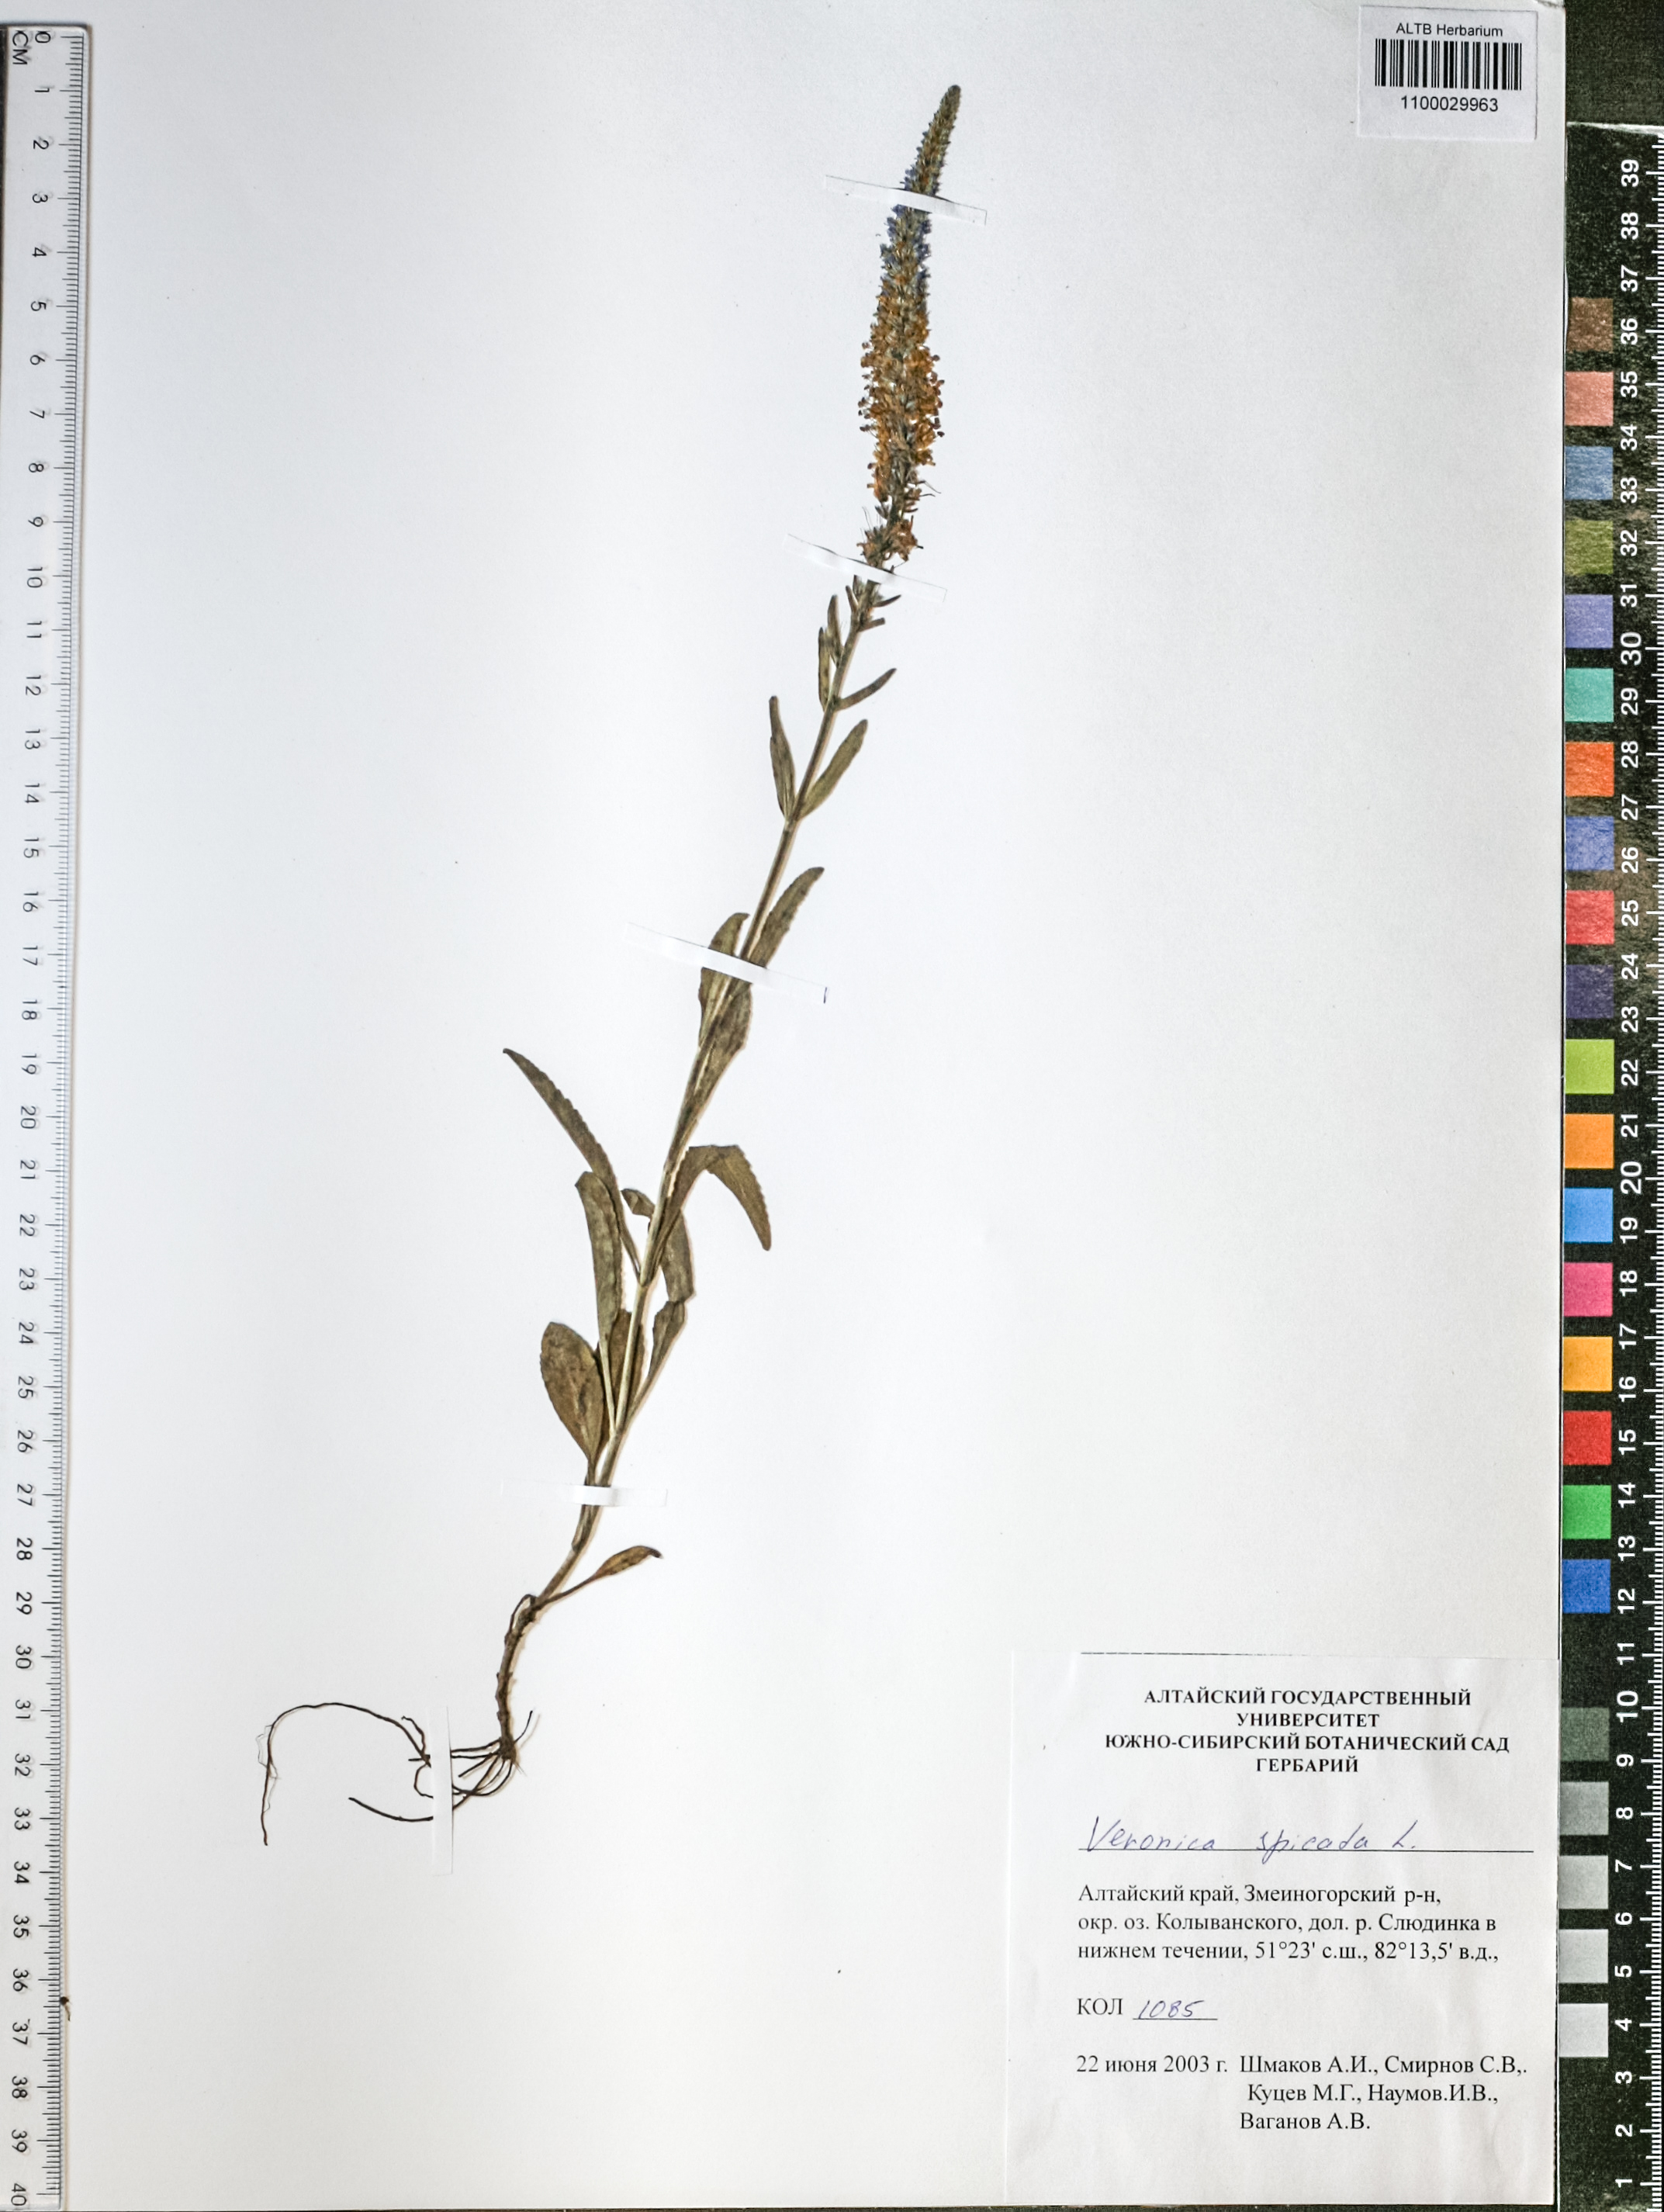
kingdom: Plantae
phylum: Tracheophyta
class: Magnoliopsida
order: Lamiales
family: Plantaginaceae
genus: Veronica
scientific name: Veronica spicata
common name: Spiked speedwell
